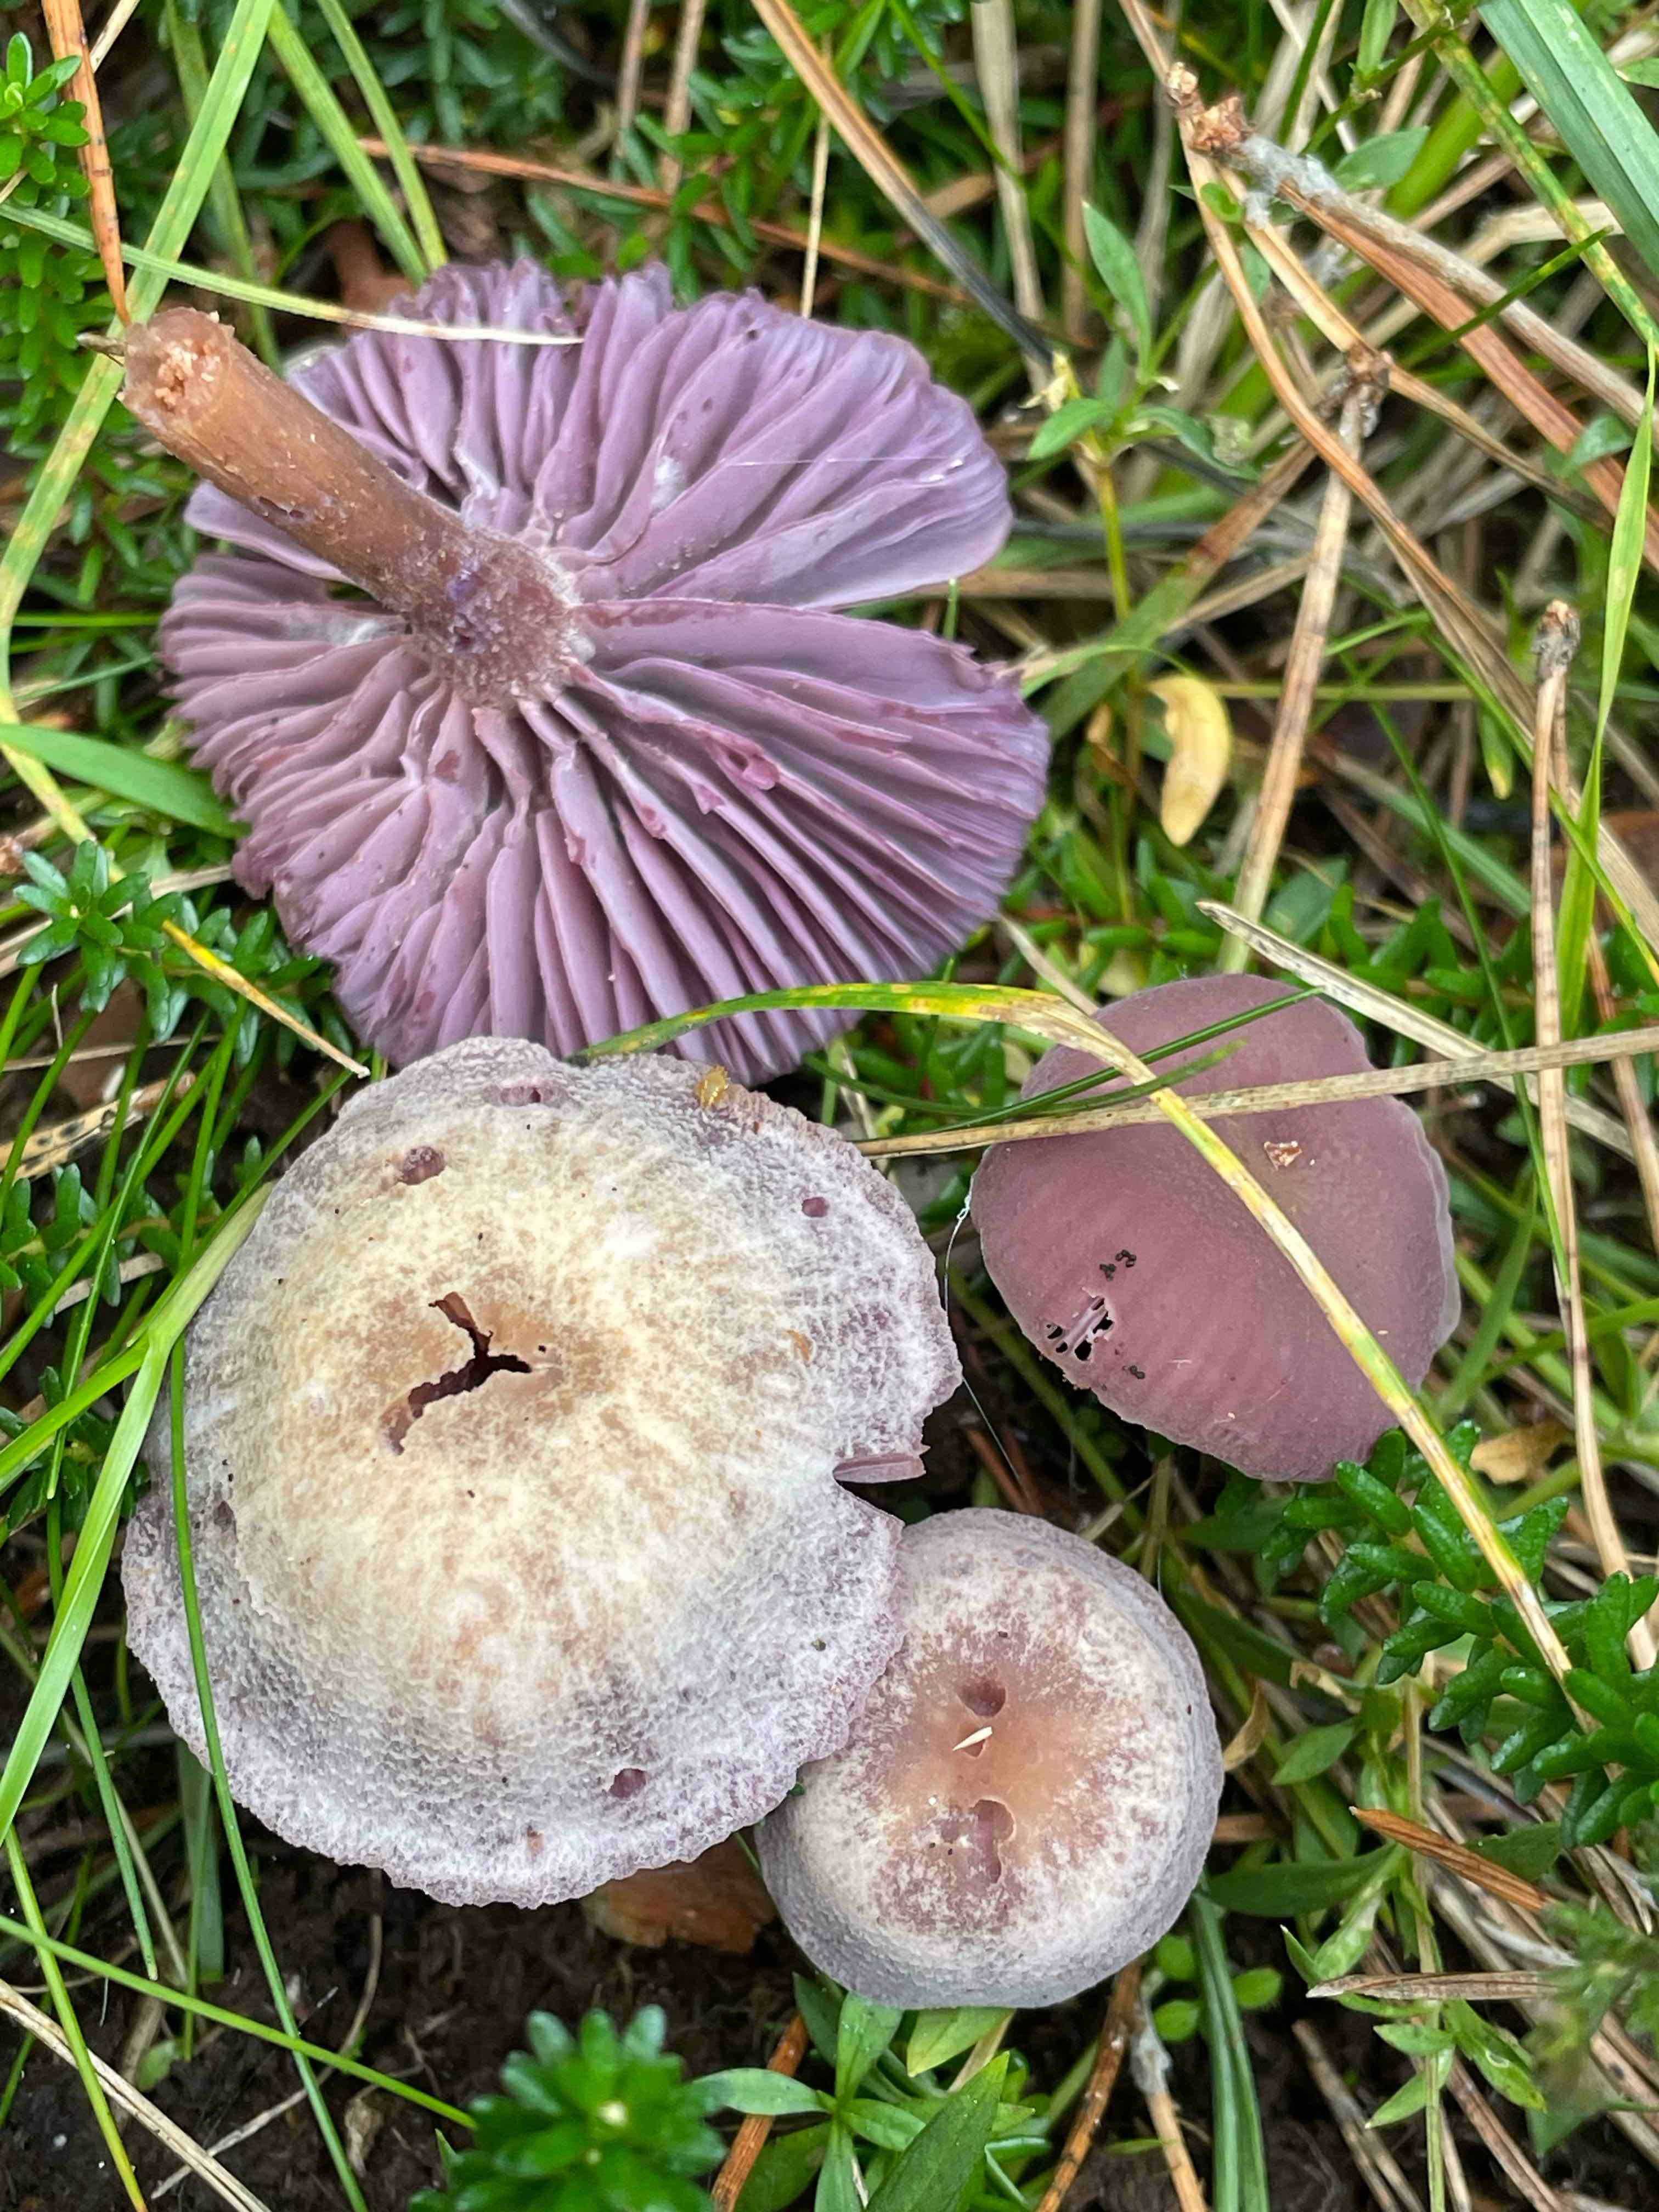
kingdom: Fungi
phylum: Basidiomycota
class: Agaricomycetes
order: Agaricales
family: Hydnangiaceae
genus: Laccaria
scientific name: Laccaria amethystina
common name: violet ametysthat
